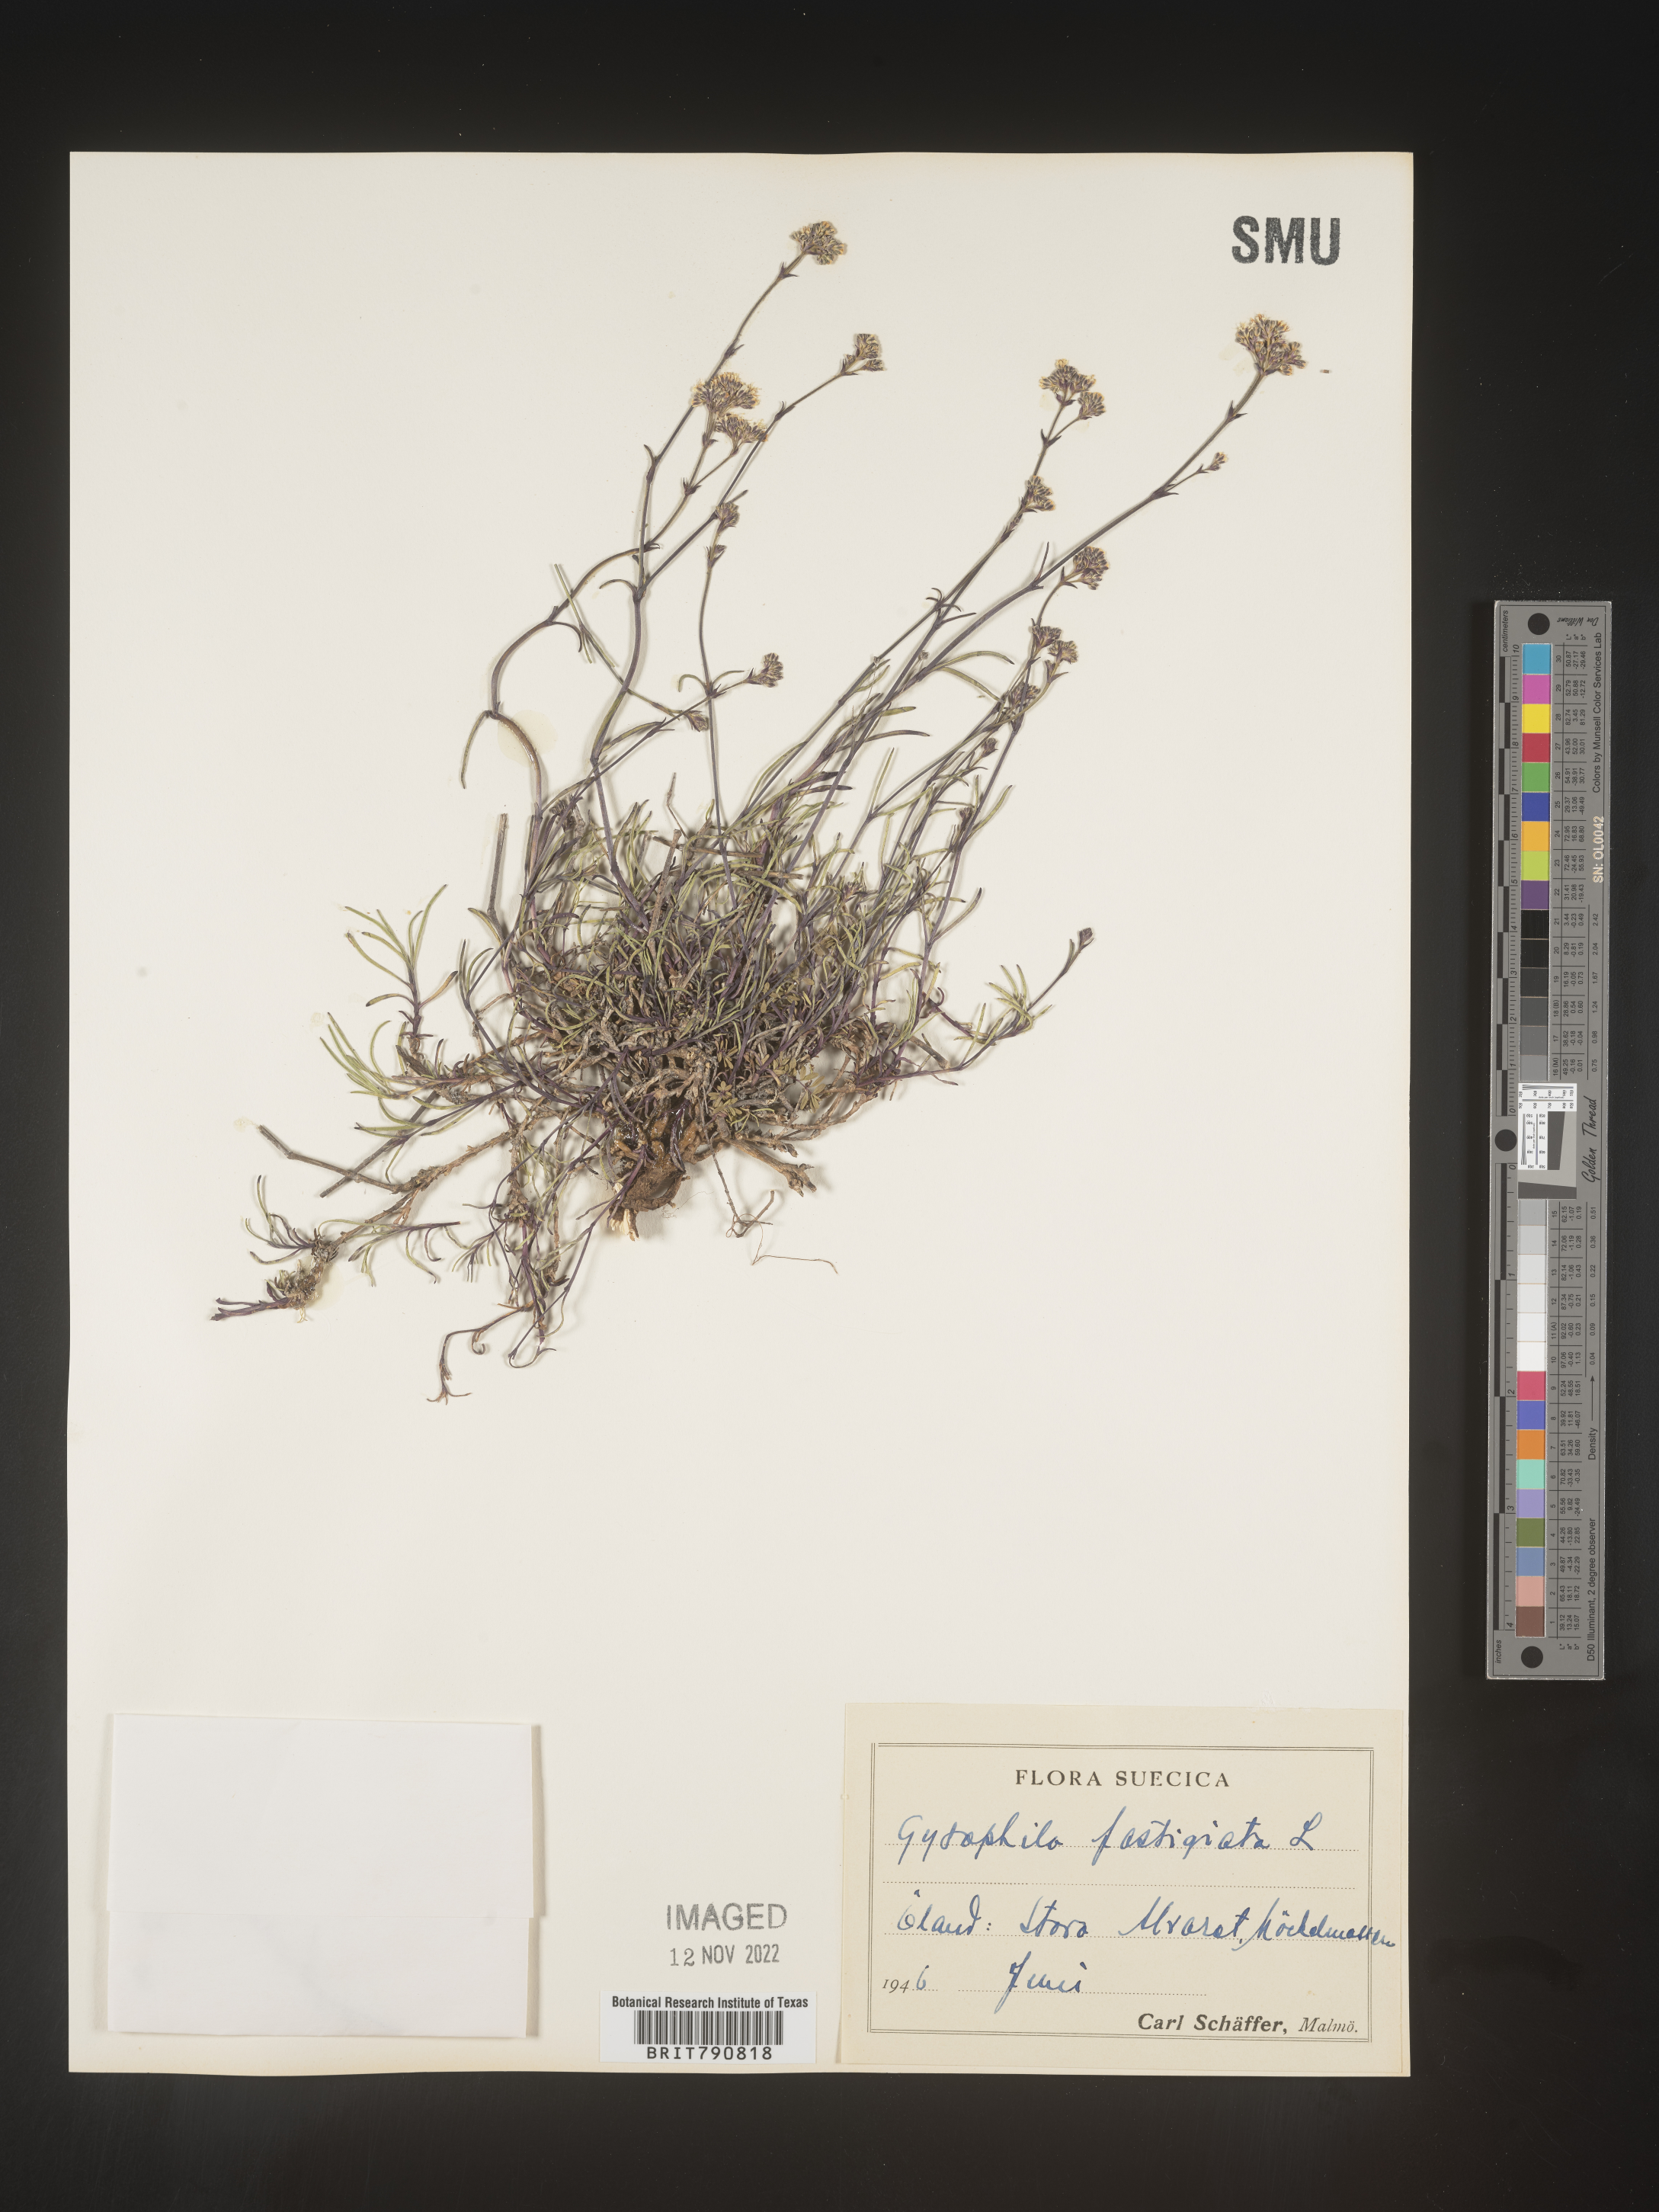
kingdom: Plantae
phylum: Tracheophyta
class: Magnoliopsida
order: Caryophyllales
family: Caryophyllaceae
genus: Gypsophila
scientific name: Gypsophila
